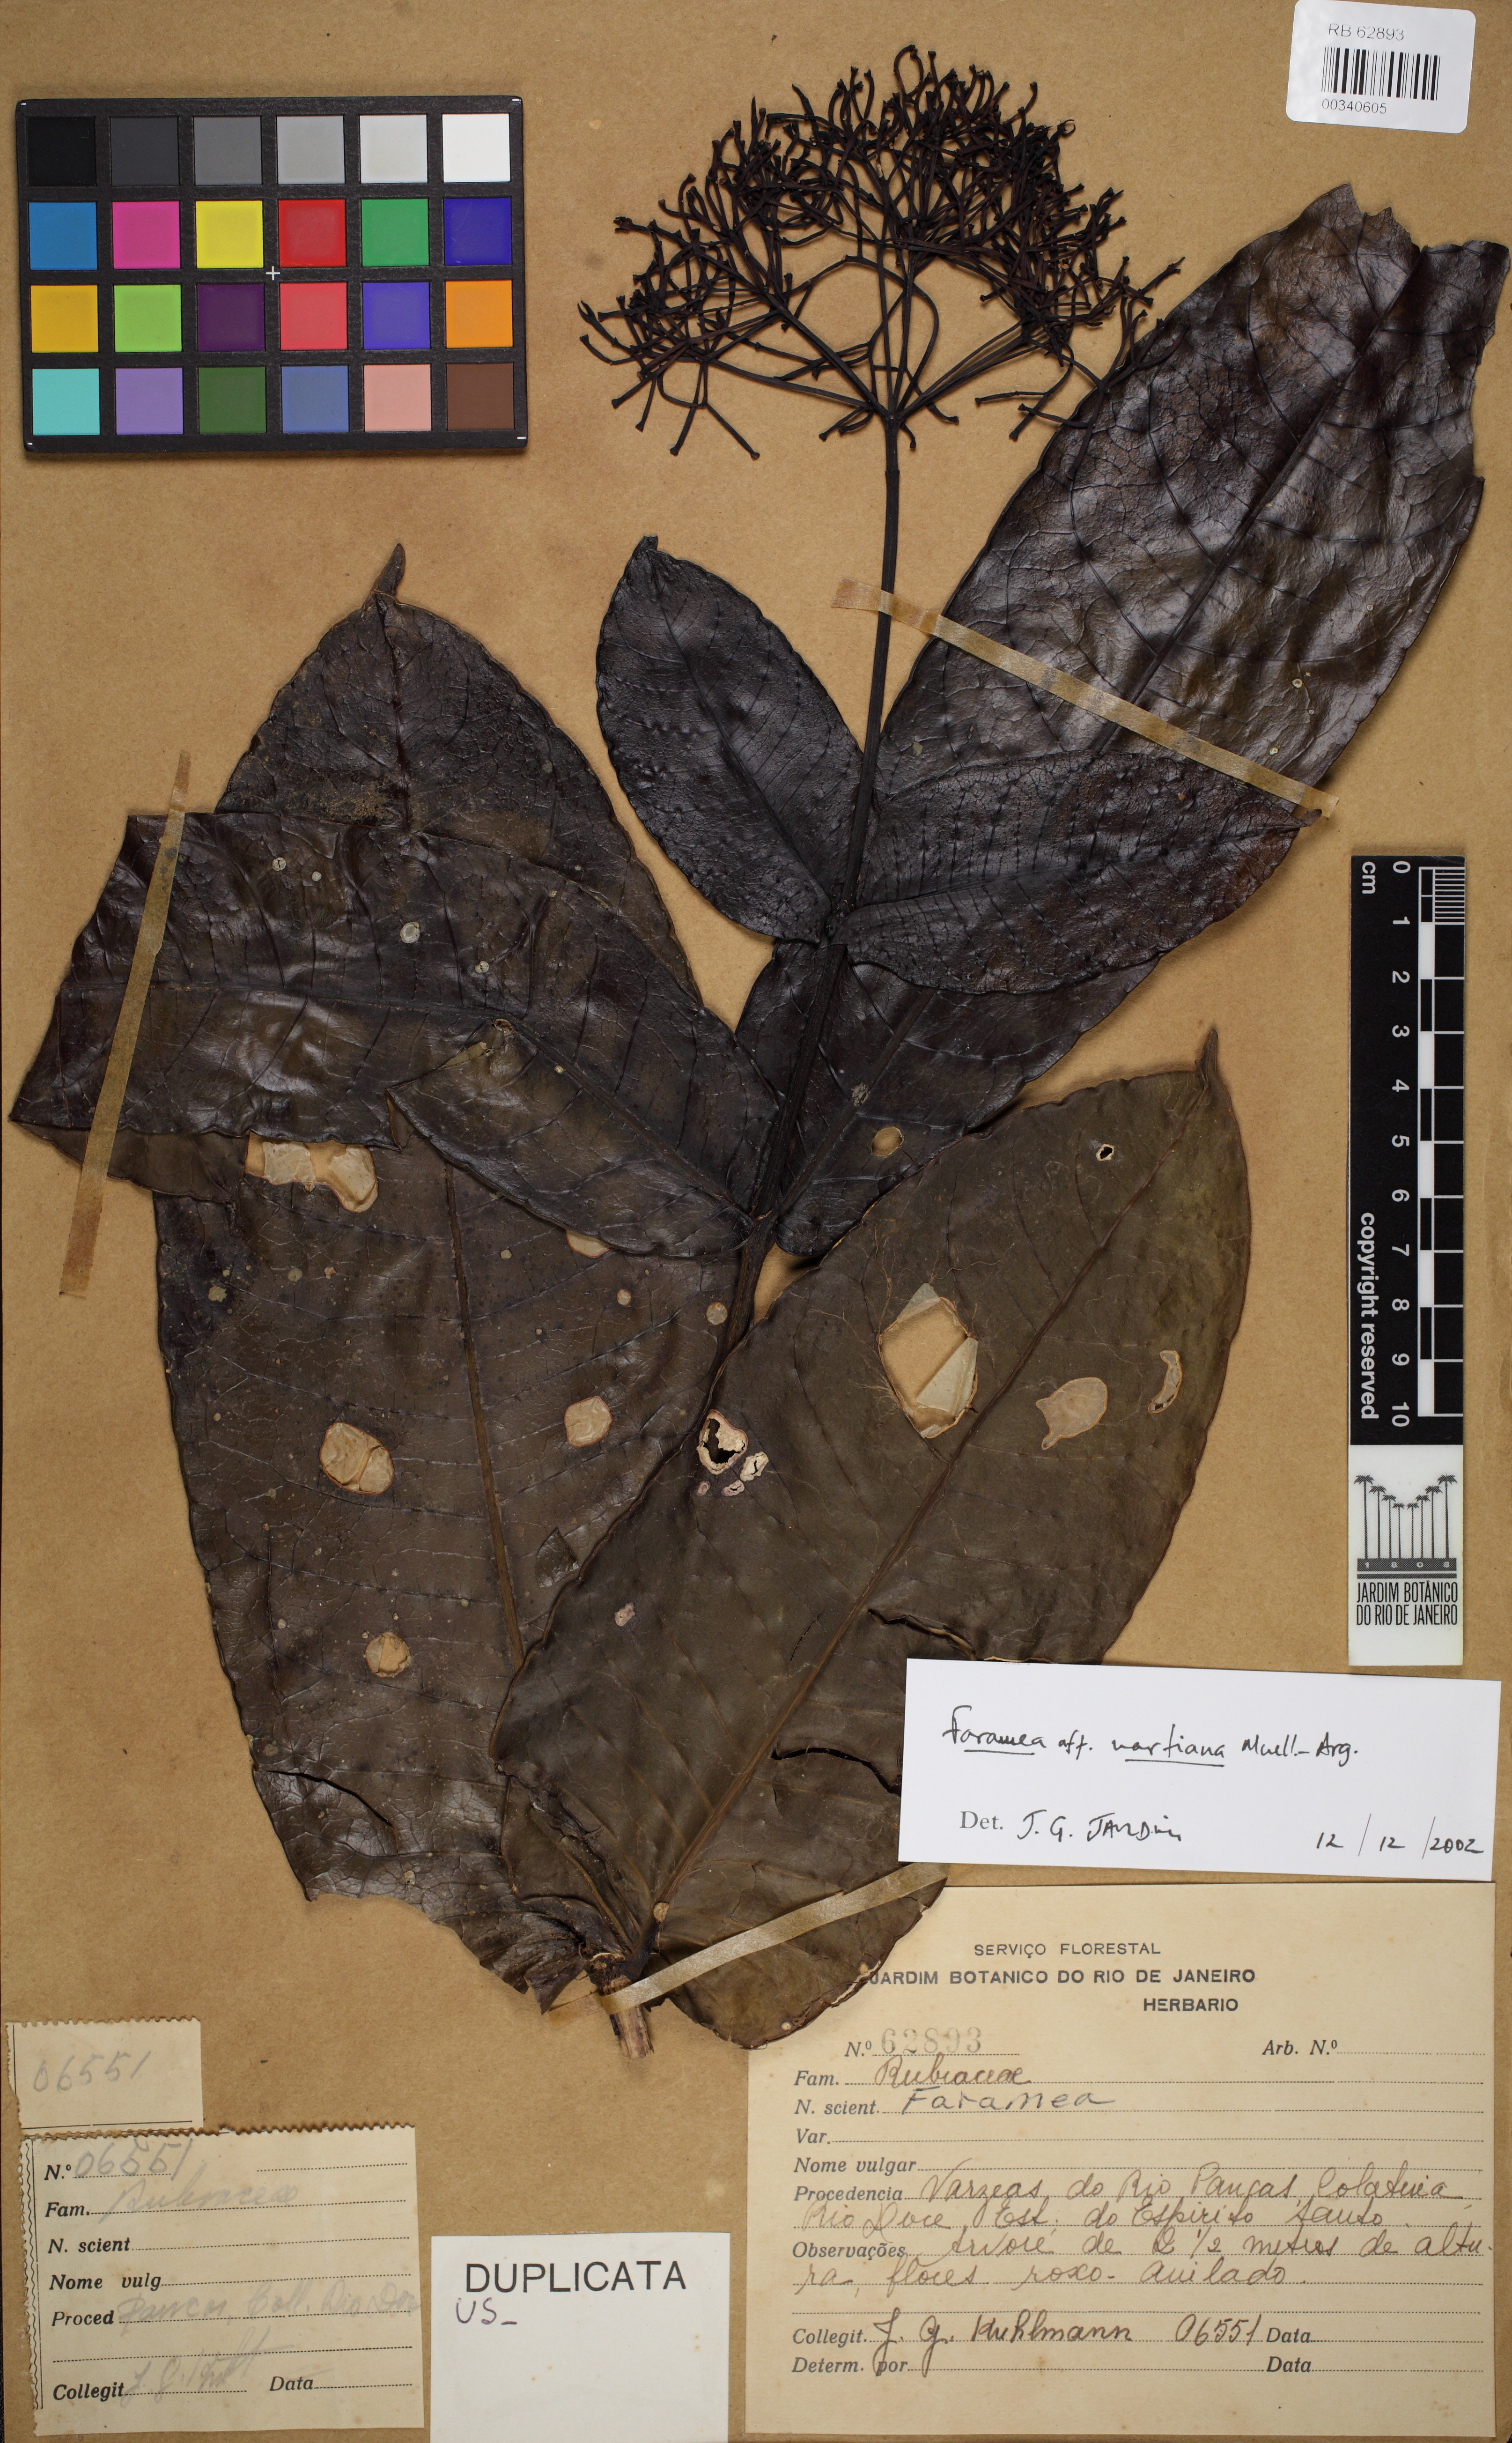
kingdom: Plantae
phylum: Tracheophyta
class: Magnoliopsida
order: Gentianales
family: Rubiaceae
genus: Faramea
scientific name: Faramea martiana
